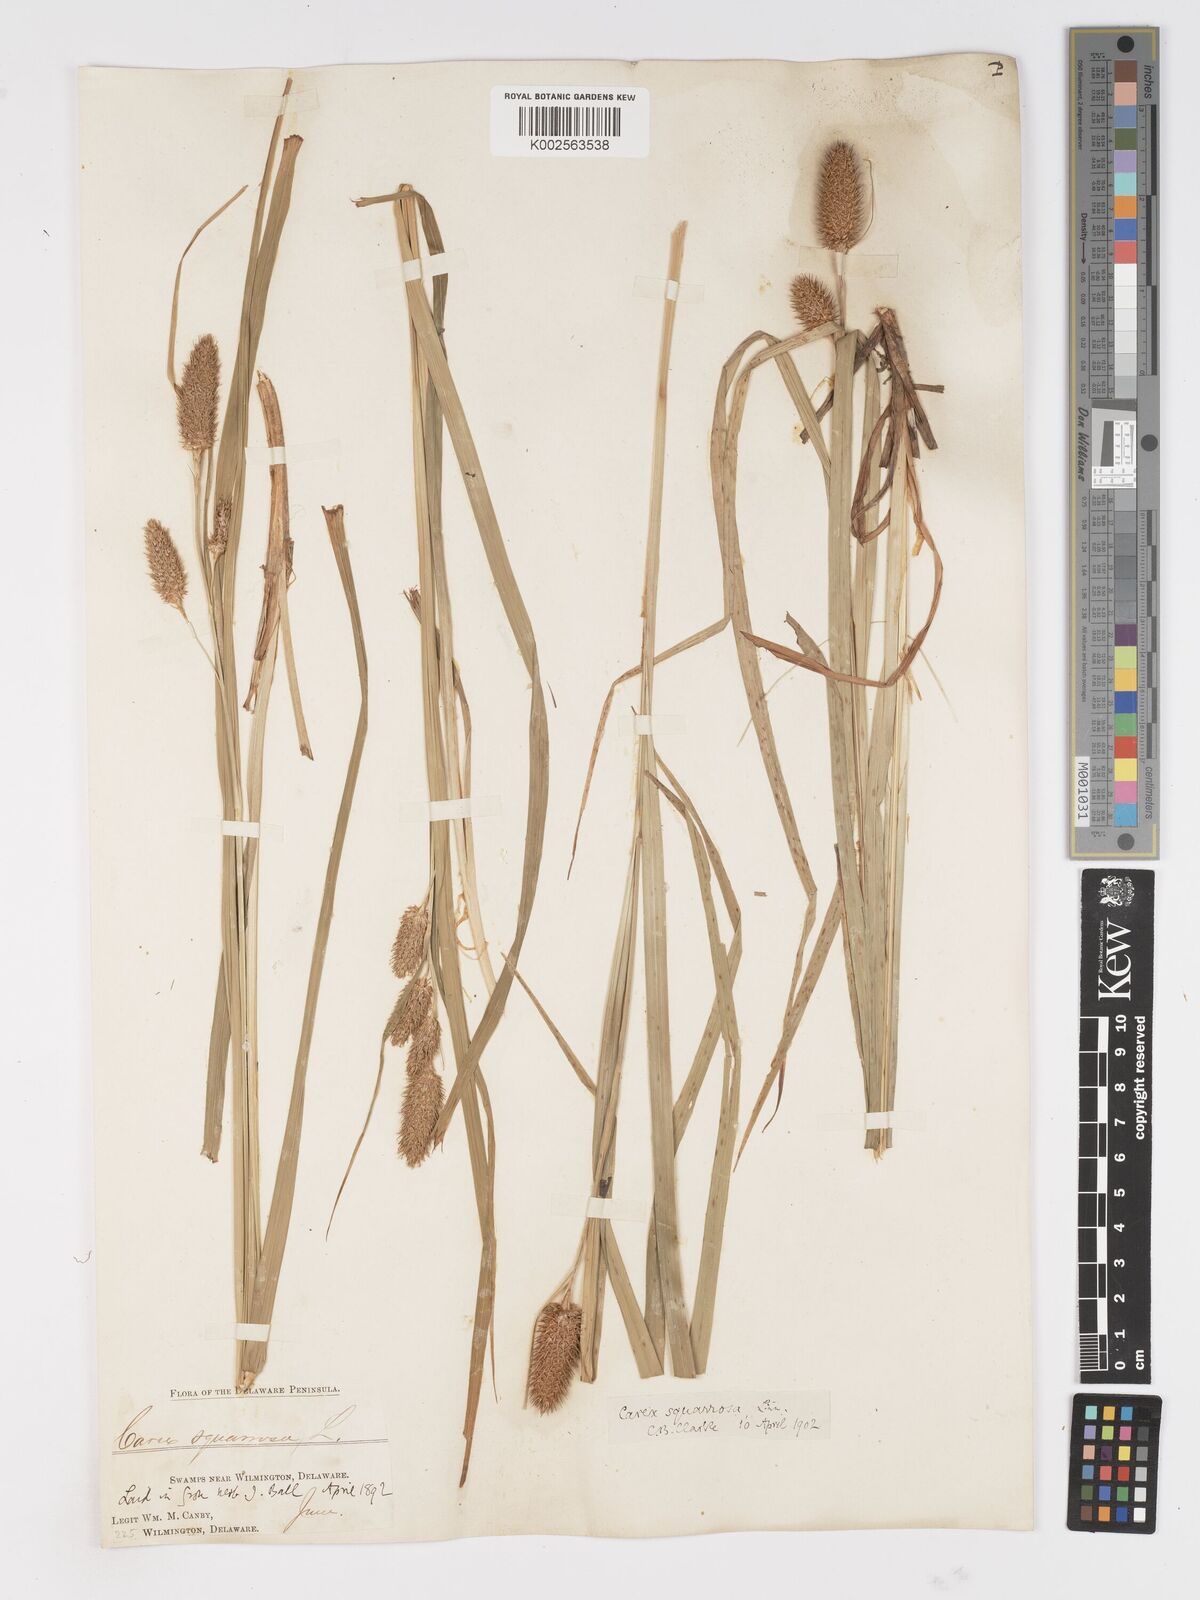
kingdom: Plantae
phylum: Tracheophyta
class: Liliopsida
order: Poales
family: Cyperaceae
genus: Carex
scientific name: Carex squarrosa
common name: Narrow-leaved cattail sedge
